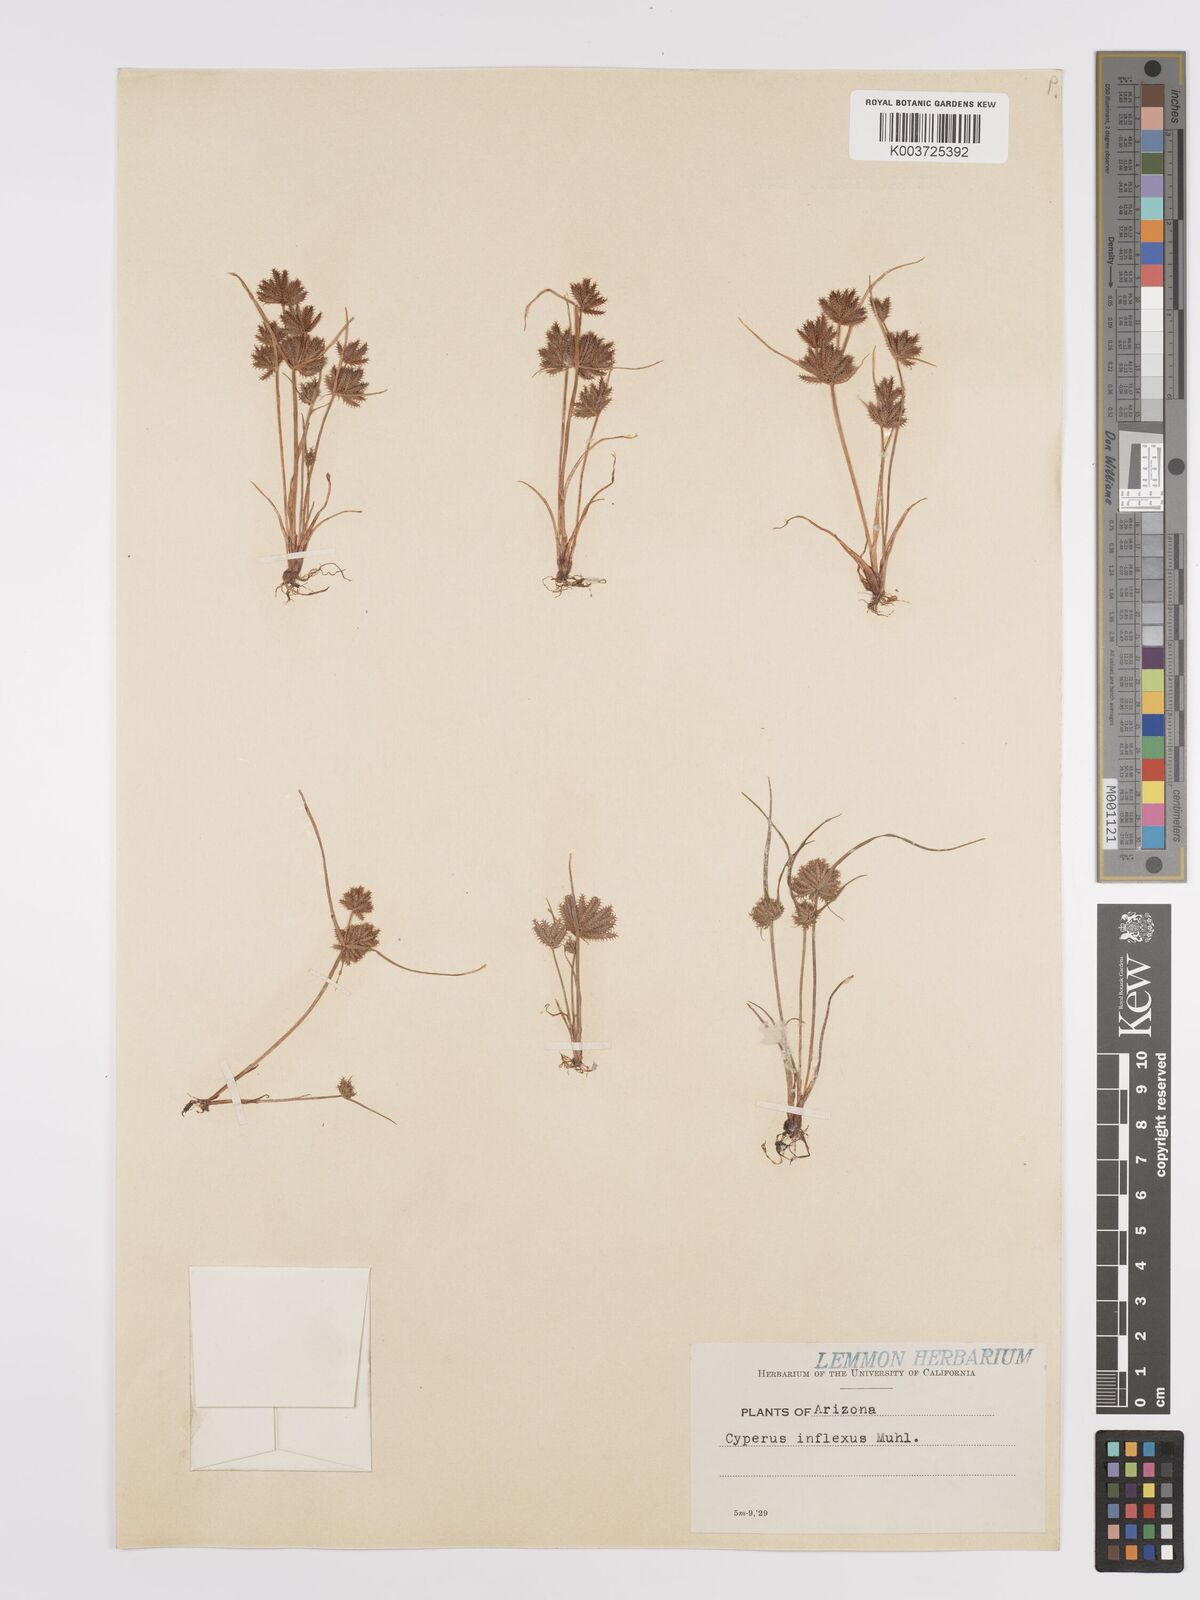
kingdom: Plantae
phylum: Tracheophyta
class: Liliopsida
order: Poales
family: Cyperaceae
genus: Cyperus
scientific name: Cyperus squarrosus
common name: Awned cyperus
